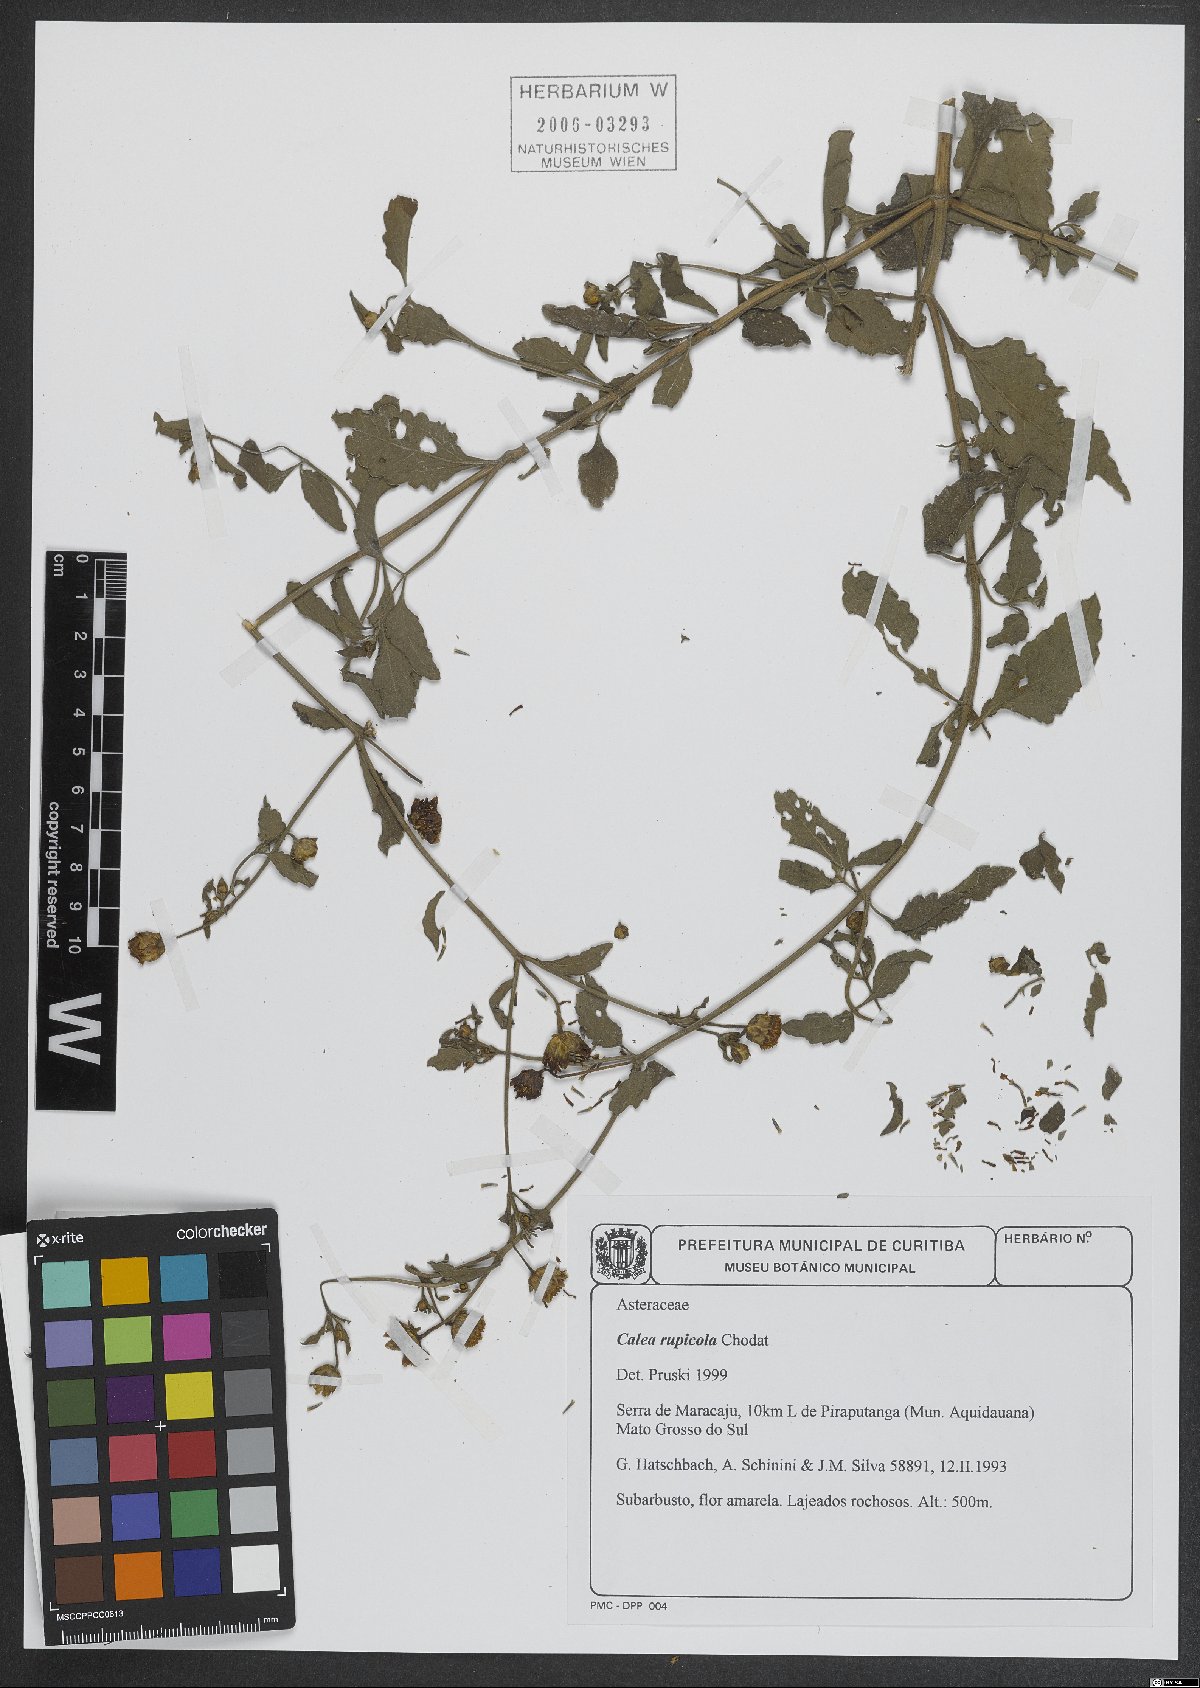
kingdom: Plantae
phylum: Tracheophyta
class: Magnoliopsida
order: Asterales
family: Asteraceae
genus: Calea
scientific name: Calea rupicola
